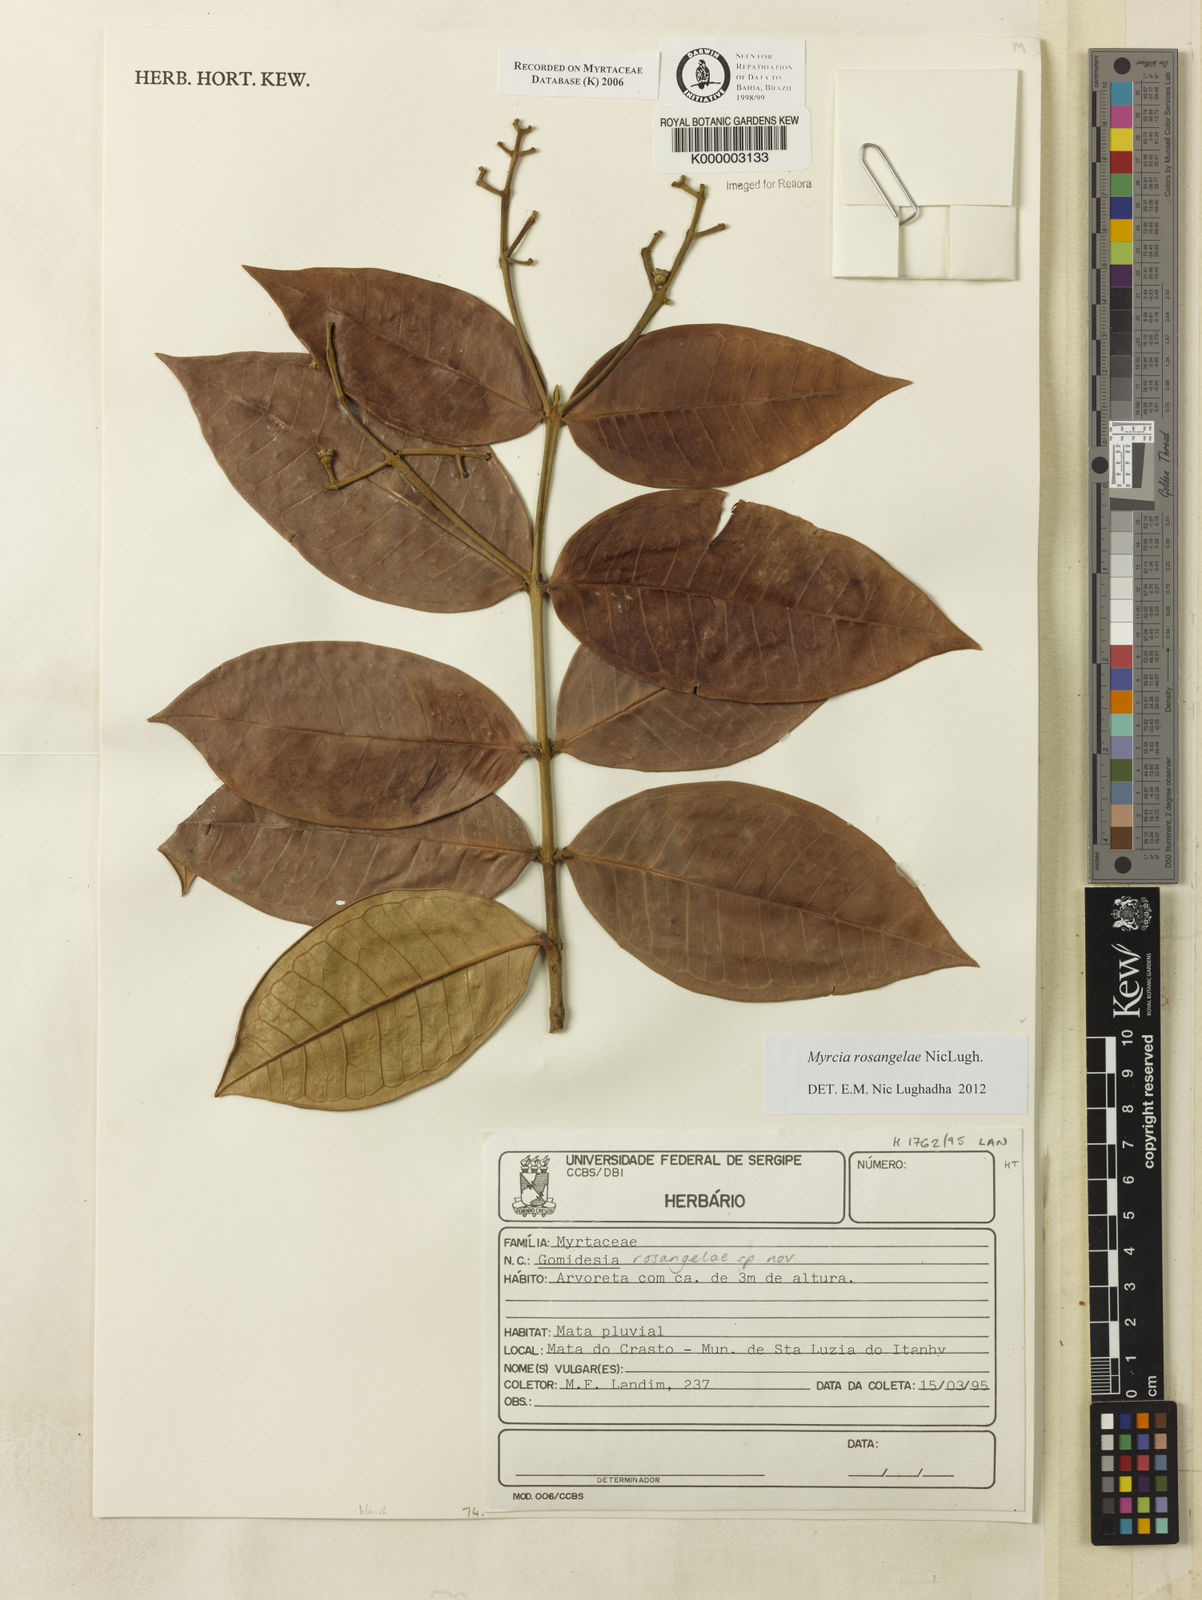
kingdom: Plantae
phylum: Tracheophyta
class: Magnoliopsida
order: Myrtales
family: Myrtaceae
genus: Myrcia
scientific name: Myrcia rosangelae
